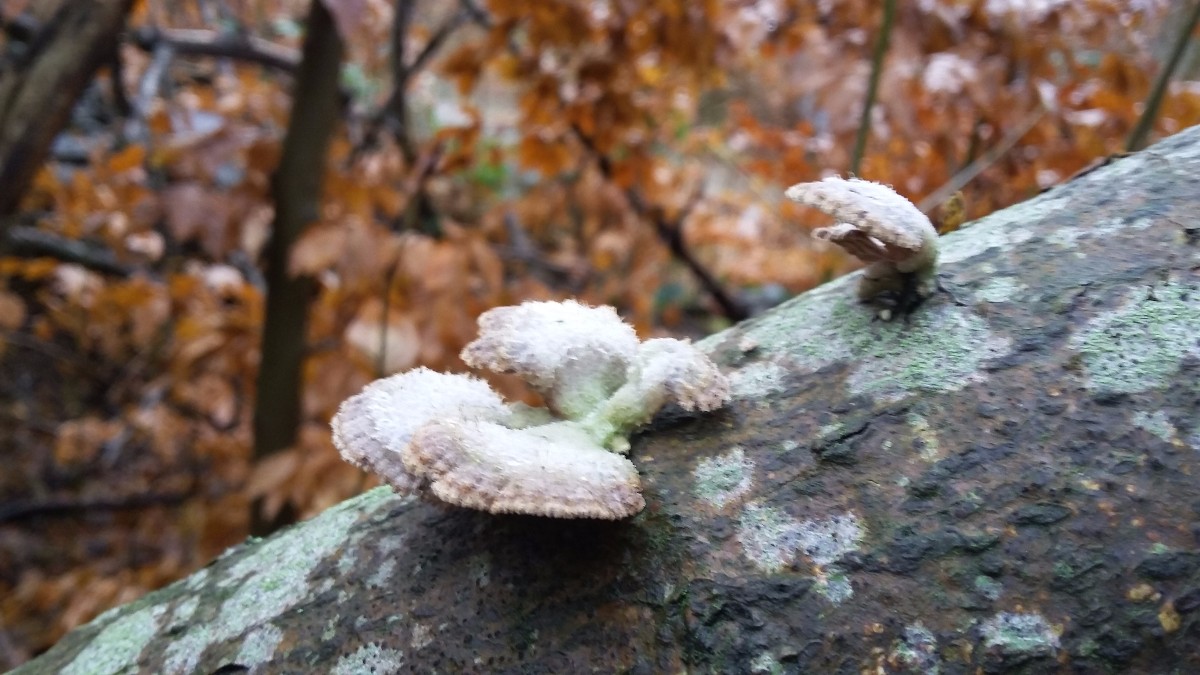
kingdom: Fungi
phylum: Basidiomycota
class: Agaricomycetes
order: Agaricales
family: Schizophyllaceae
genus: Schizophyllum
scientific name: Schizophyllum commune
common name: kløvblad
